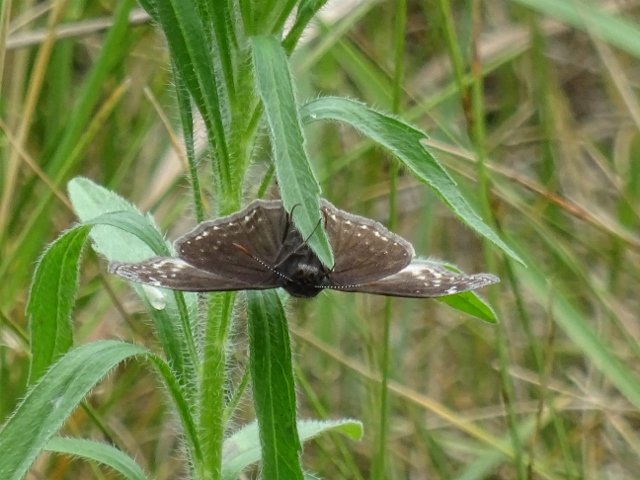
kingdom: Animalia
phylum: Arthropoda
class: Insecta
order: Lepidoptera
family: Hesperiidae
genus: Erynnis
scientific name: Erynnis
